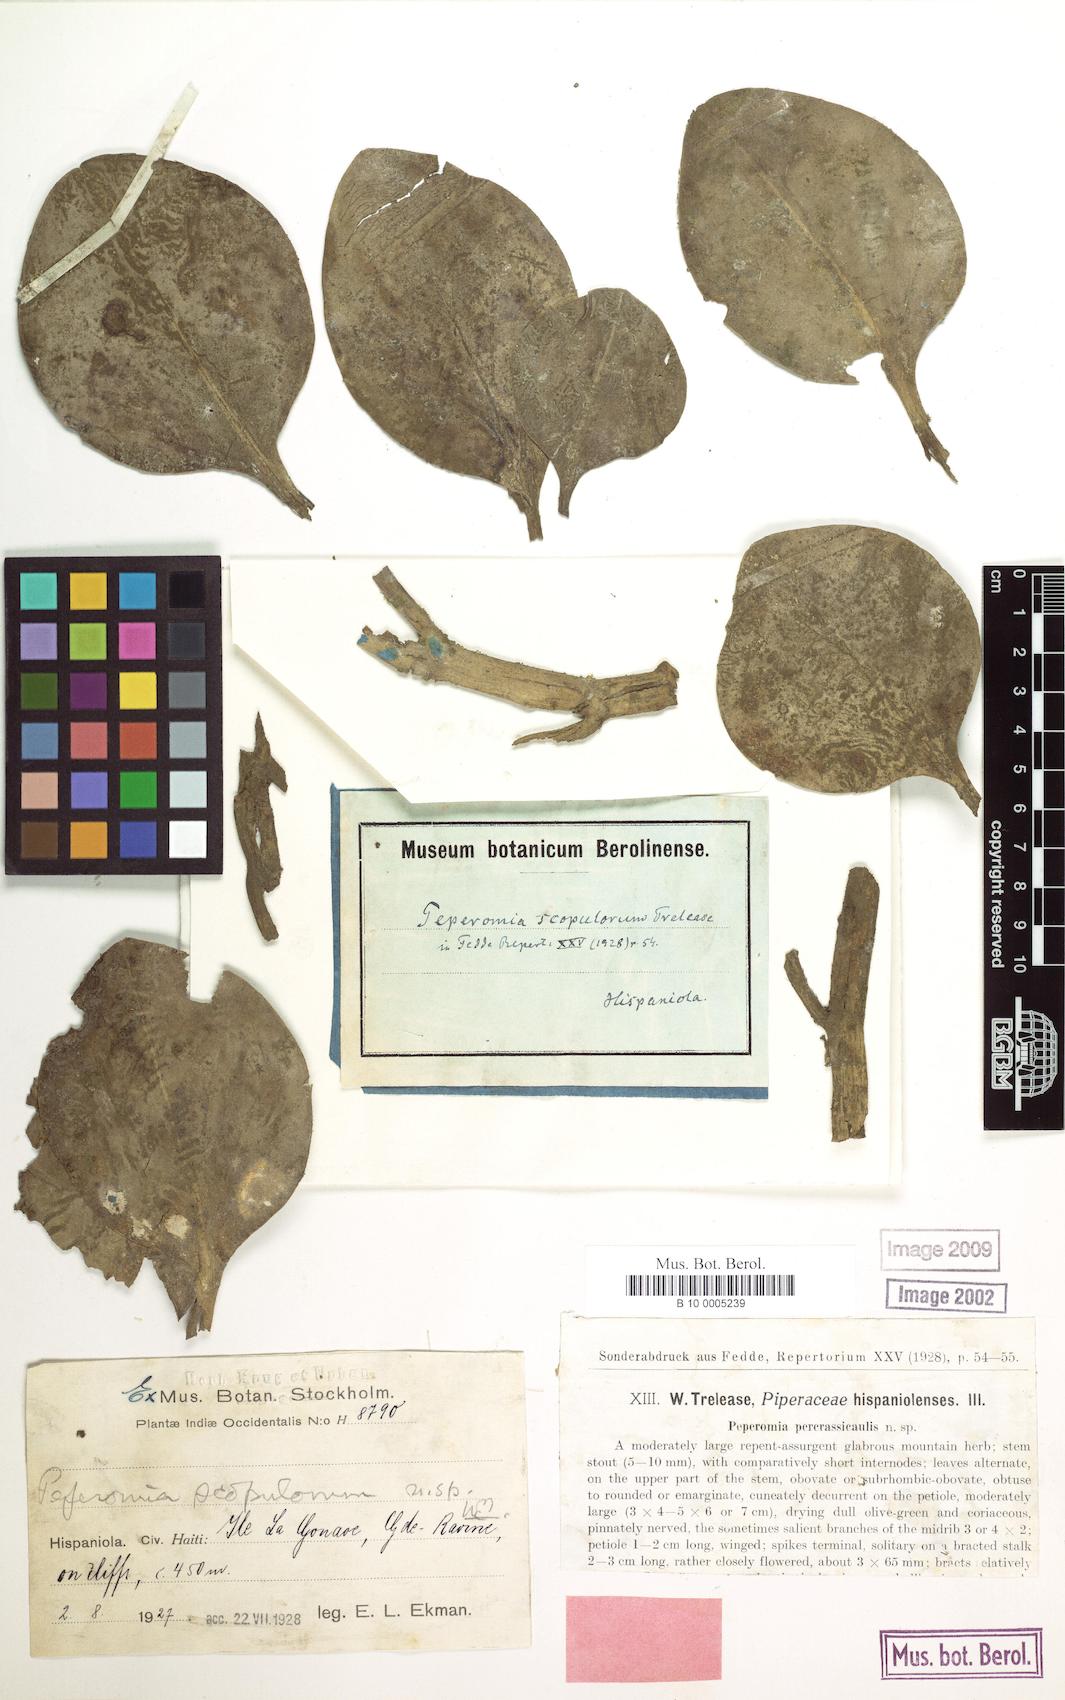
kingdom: Plantae
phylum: Tracheophyta
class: Magnoliopsida
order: Piperales
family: Piperaceae
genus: Peperomia
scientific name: Peperomia scopulorum
